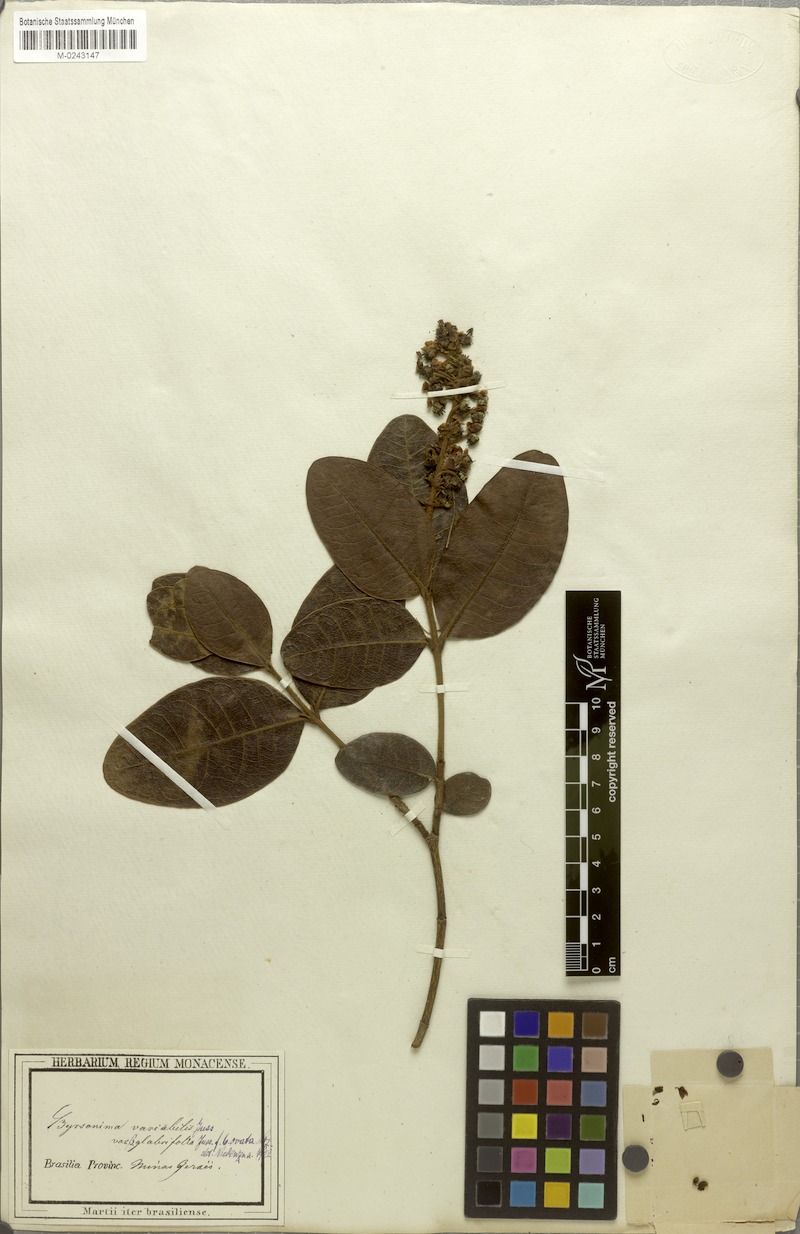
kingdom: Plantae
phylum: Tracheophyta
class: Magnoliopsida
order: Malpighiales
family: Malpighiaceae
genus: Byrsonima
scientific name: Byrsonima variabilis
